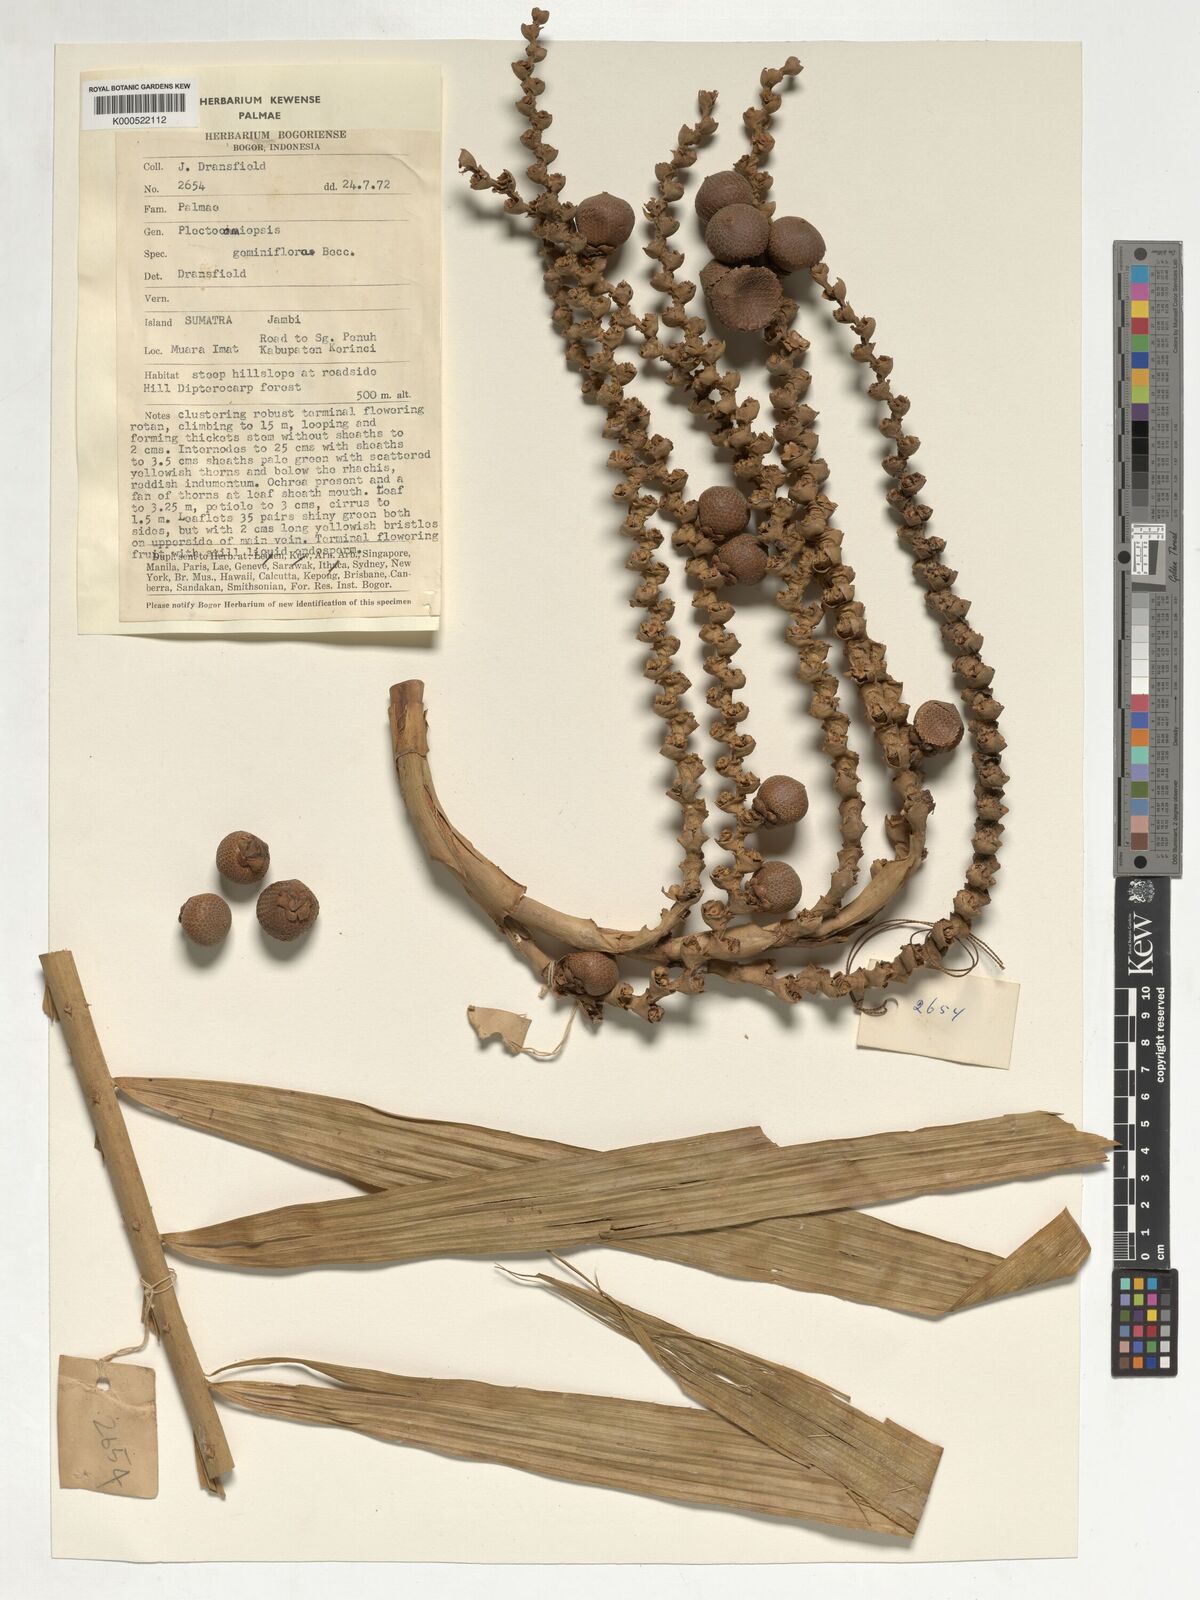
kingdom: Plantae
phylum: Tracheophyta
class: Liliopsida
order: Arecales
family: Arecaceae
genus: Plectocomiopsis
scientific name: Plectocomiopsis geminiflora
